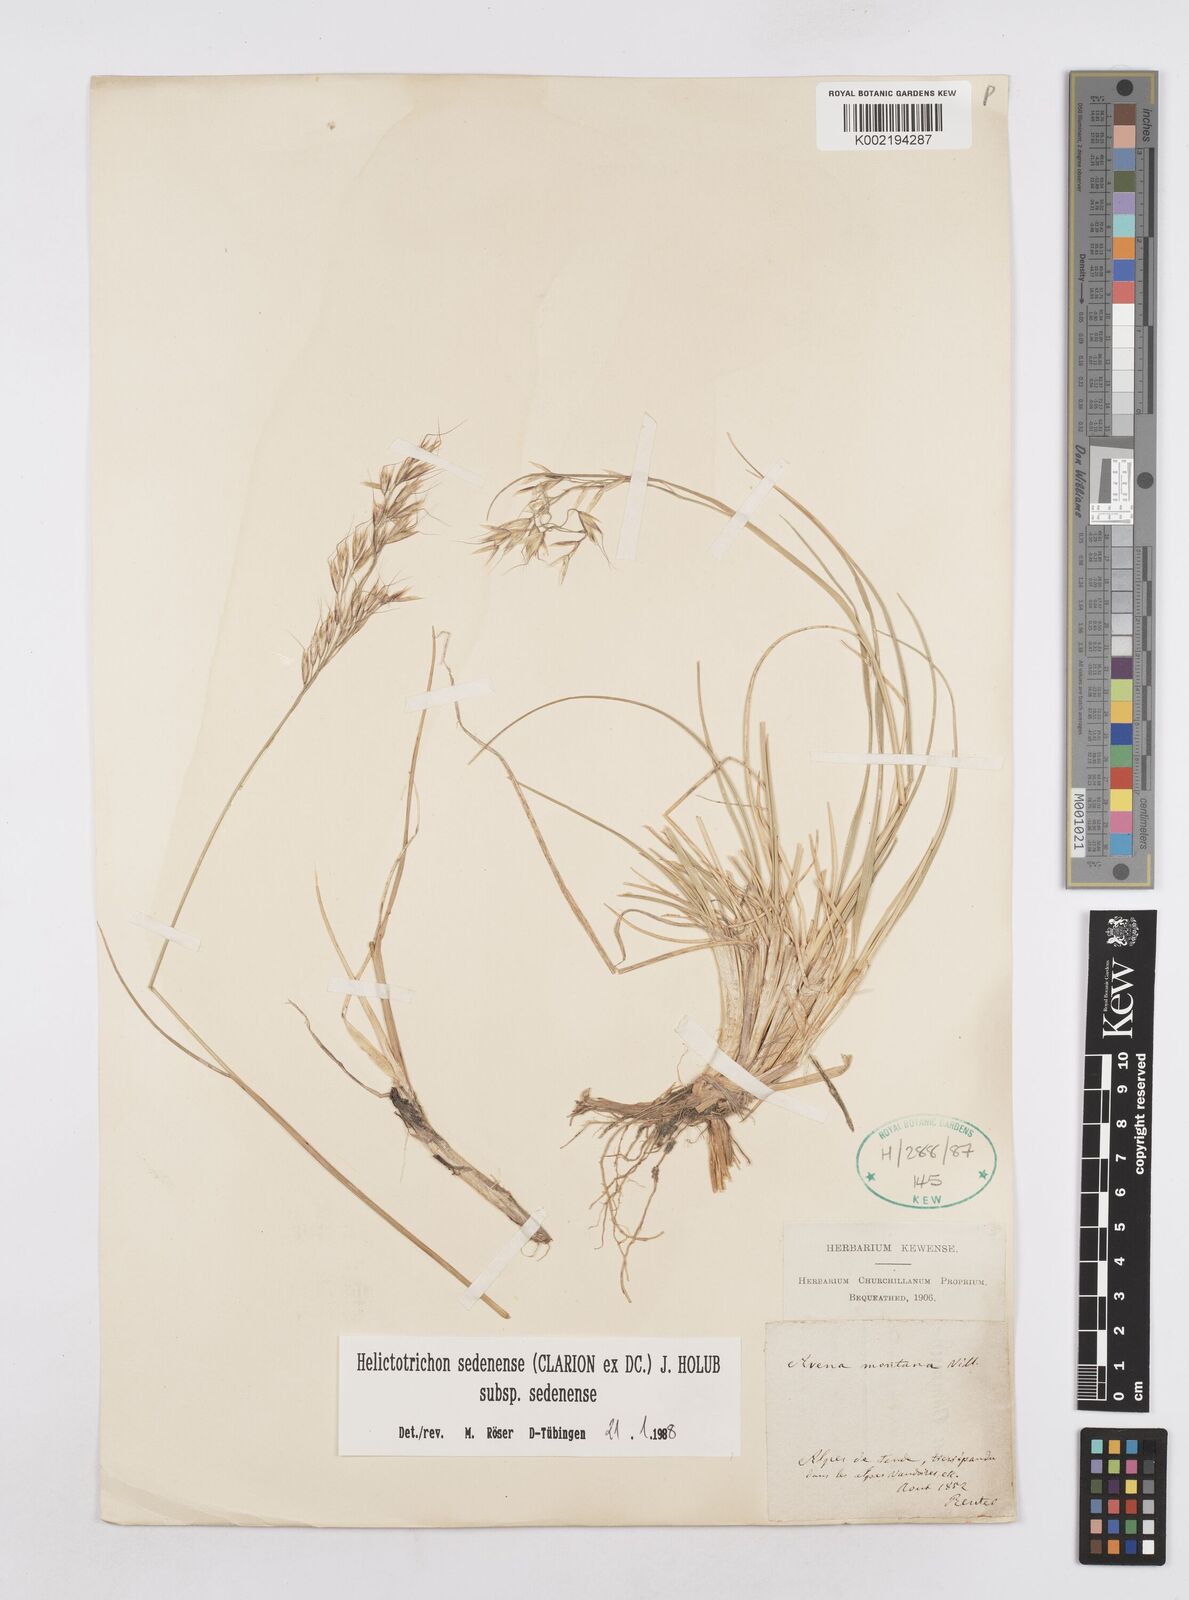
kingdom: Plantae
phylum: Tracheophyta
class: Liliopsida
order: Poales
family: Poaceae
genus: Helictotrichon
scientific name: Helictotrichon sedenense
